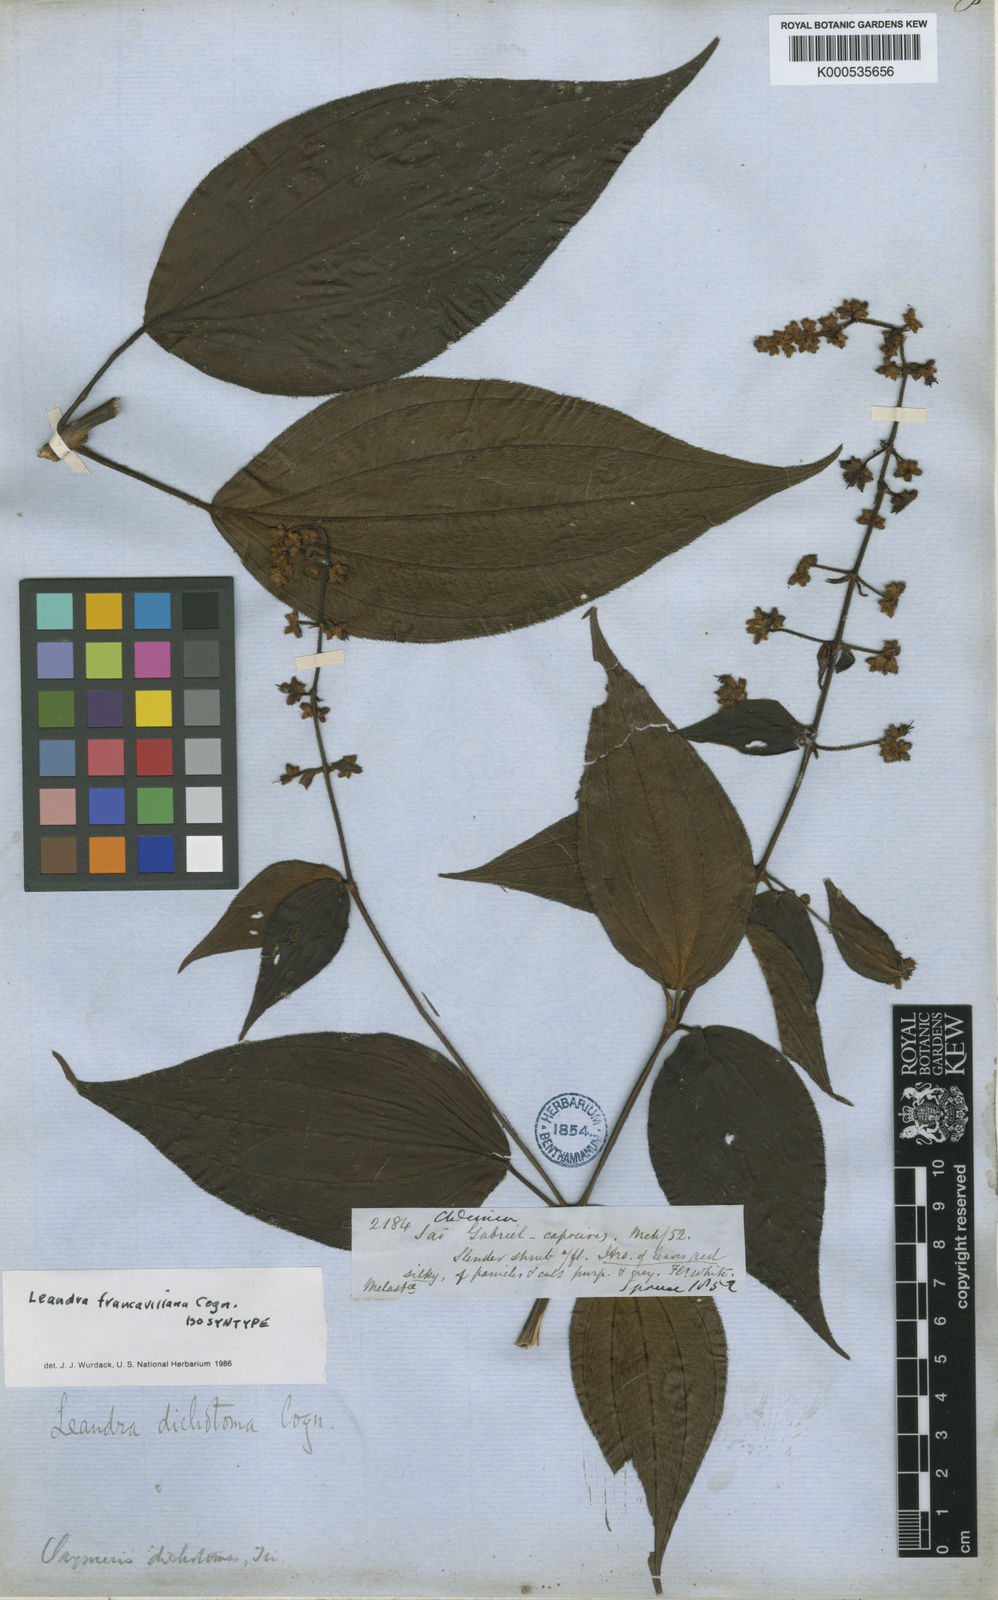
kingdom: Plantae
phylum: Tracheophyta
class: Magnoliopsida
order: Myrtales
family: Melastomataceae
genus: Miconia
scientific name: Miconia secunfrancavillana
